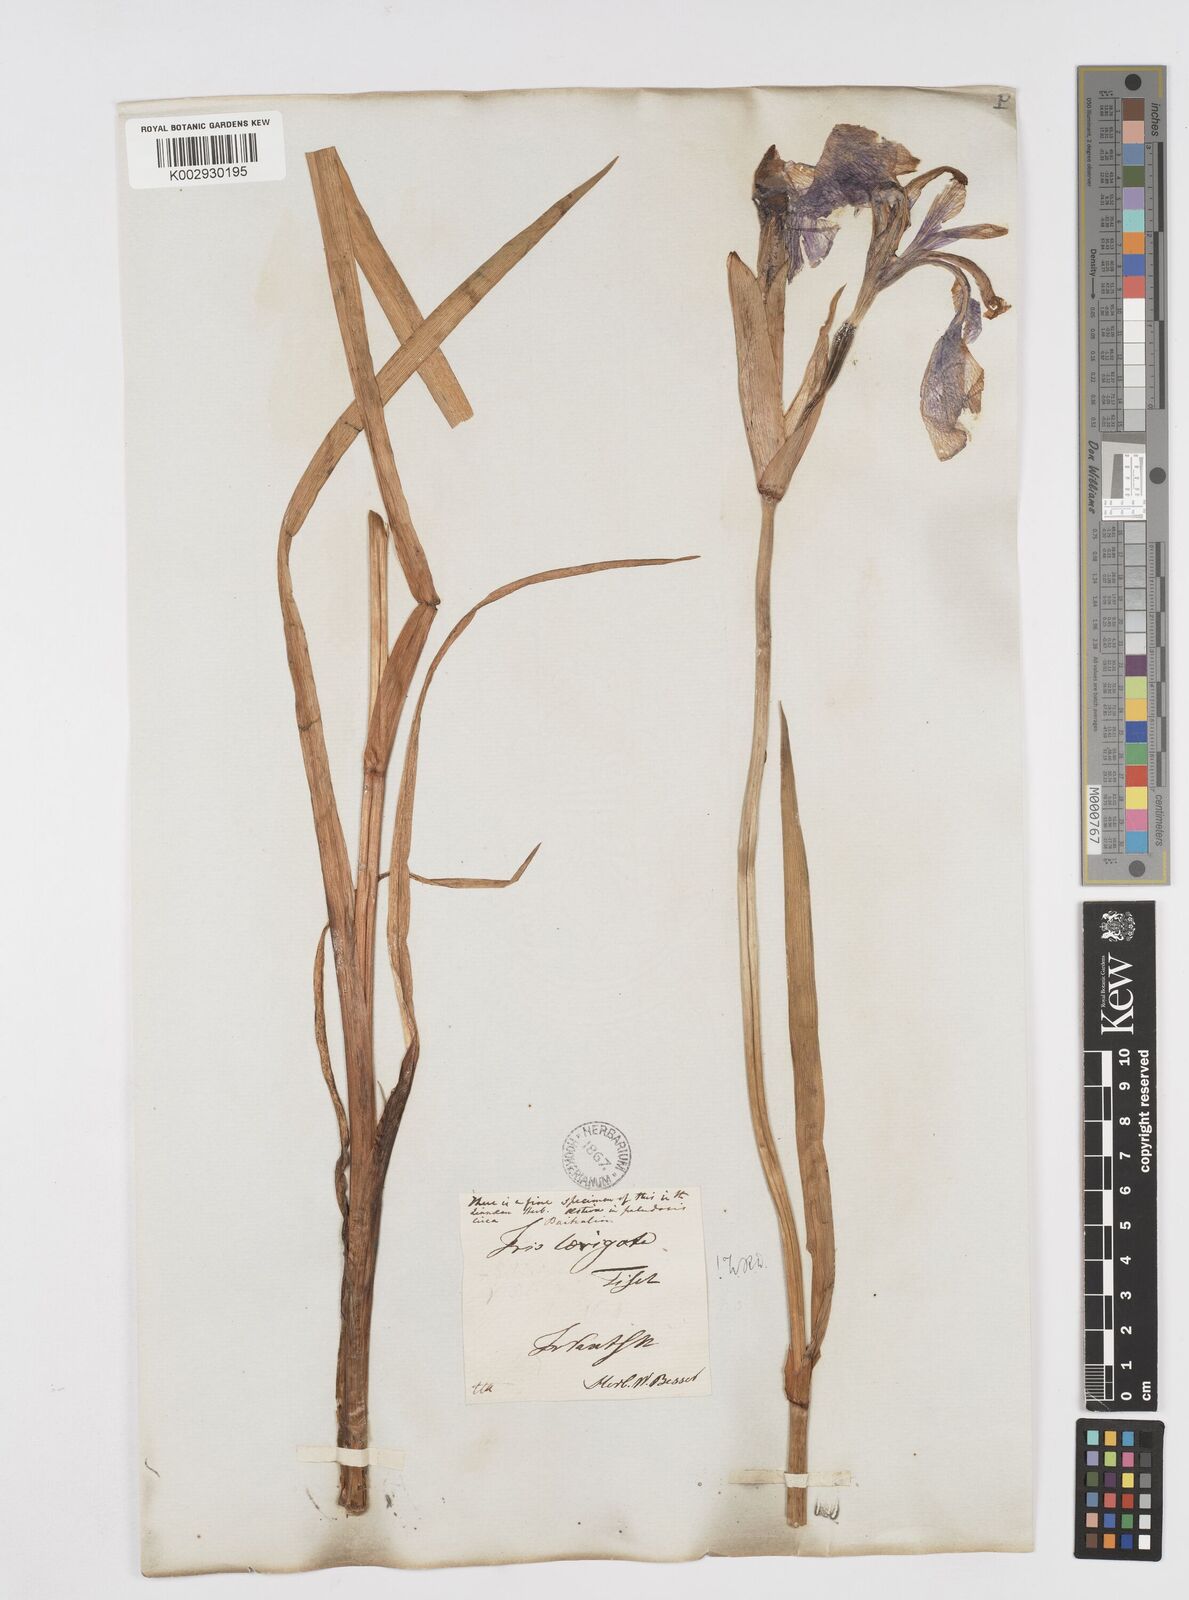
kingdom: Plantae
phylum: Tracheophyta
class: Liliopsida
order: Asparagales
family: Iridaceae
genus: Iris
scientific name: Iris laevigata
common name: Japanese iris
